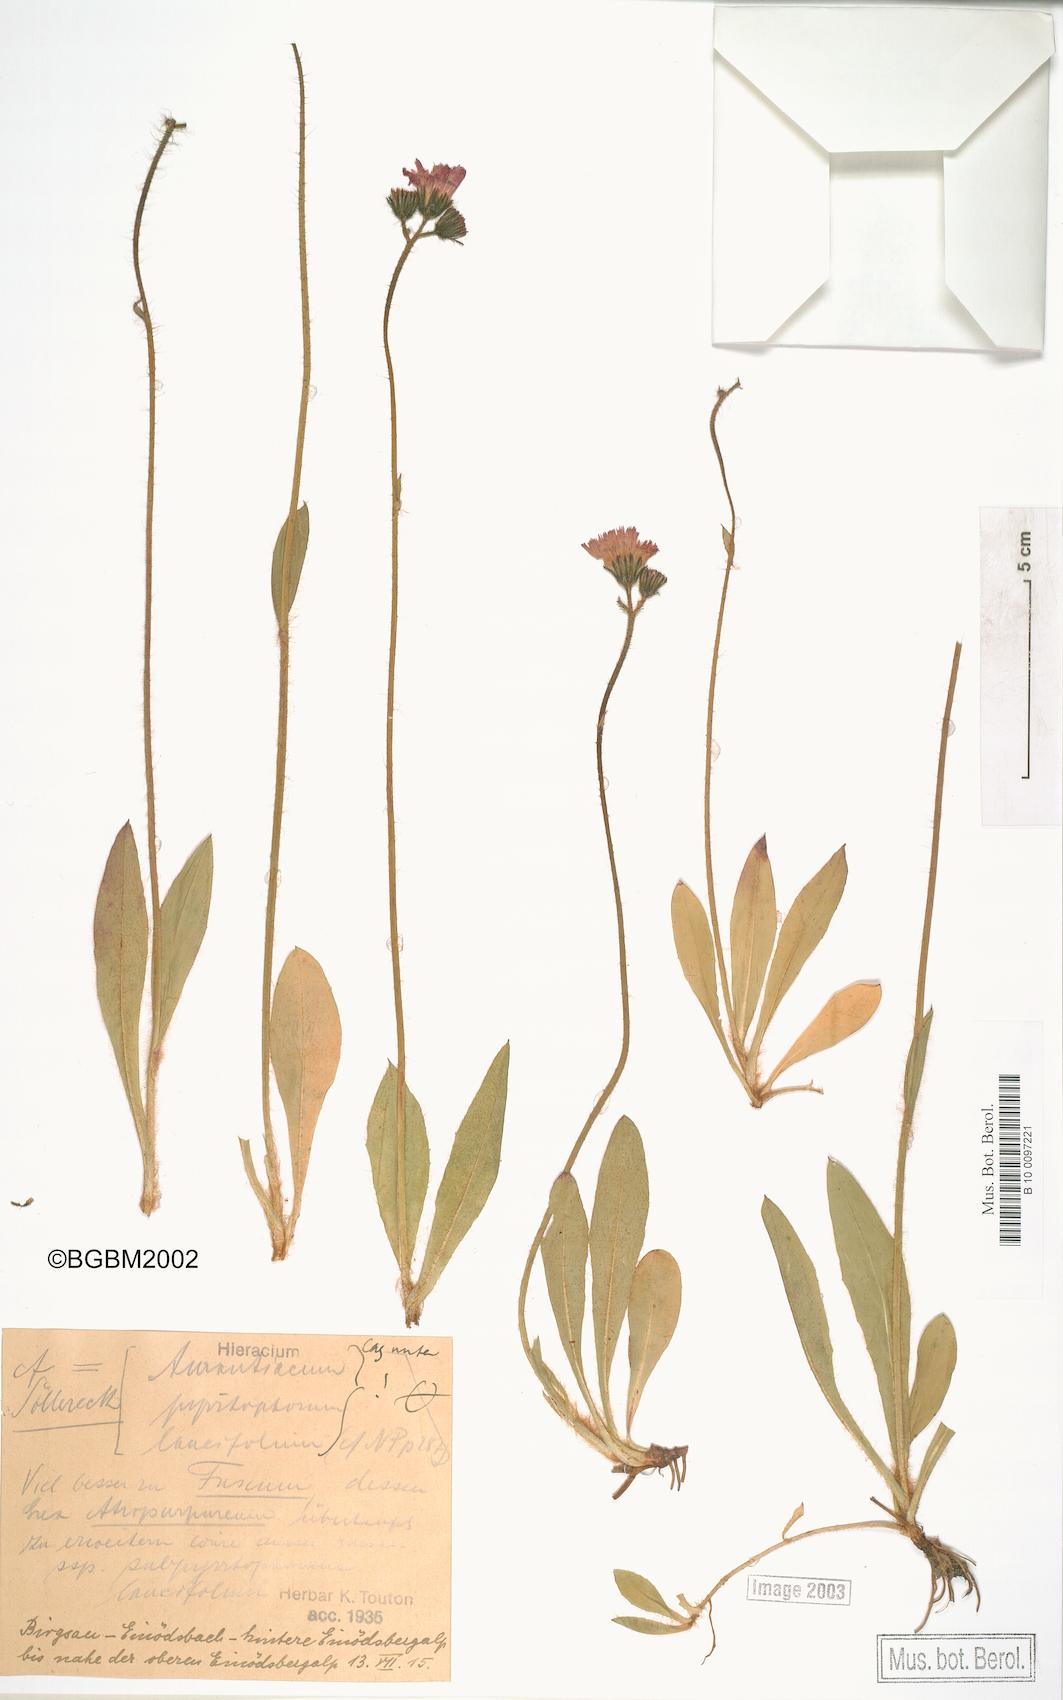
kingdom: Plantae
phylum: Tracheophyta
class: Magnoliopsida
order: Asterales
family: Asteraceae
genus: Pilosella
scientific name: Pilosella aurantiaca
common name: Fox-and-cubs
